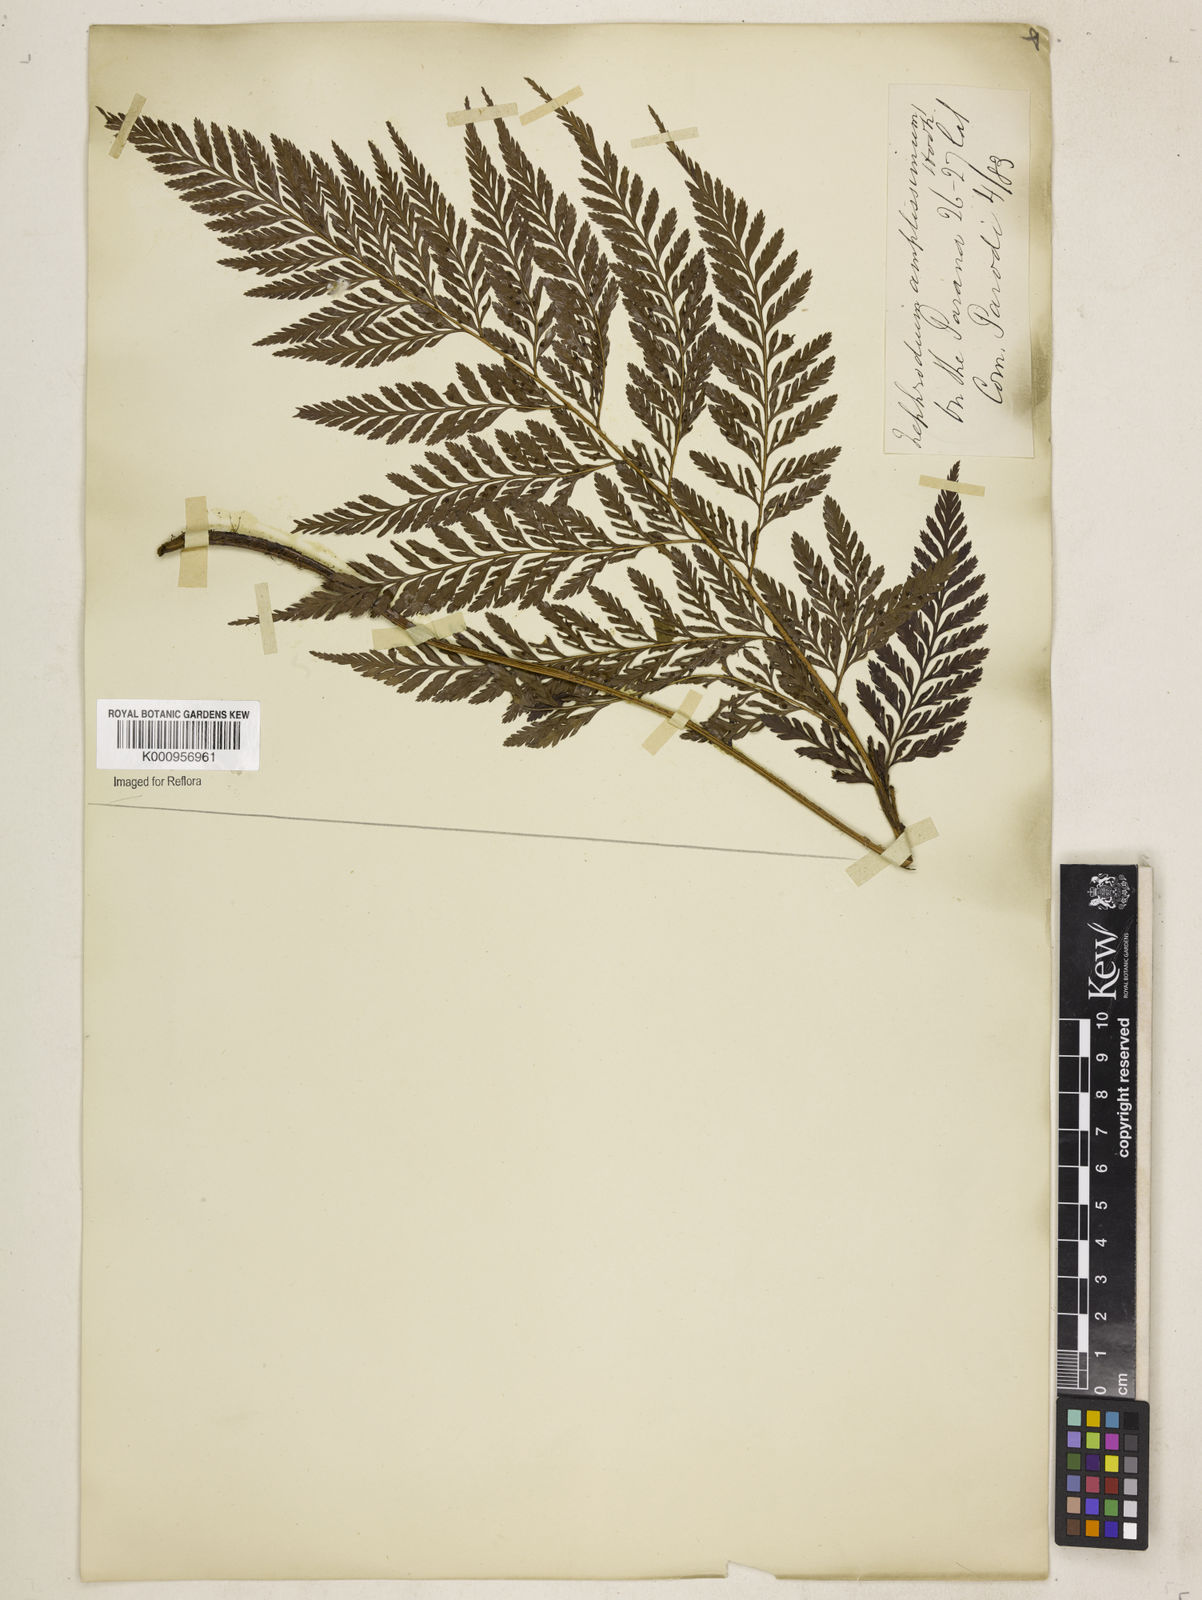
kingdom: Plantae
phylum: Tracheophyta
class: Polypodiopsida
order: Polypodiales
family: Dryopteridaceae
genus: Lastreopsis
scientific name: Lastreopsis amplissima
